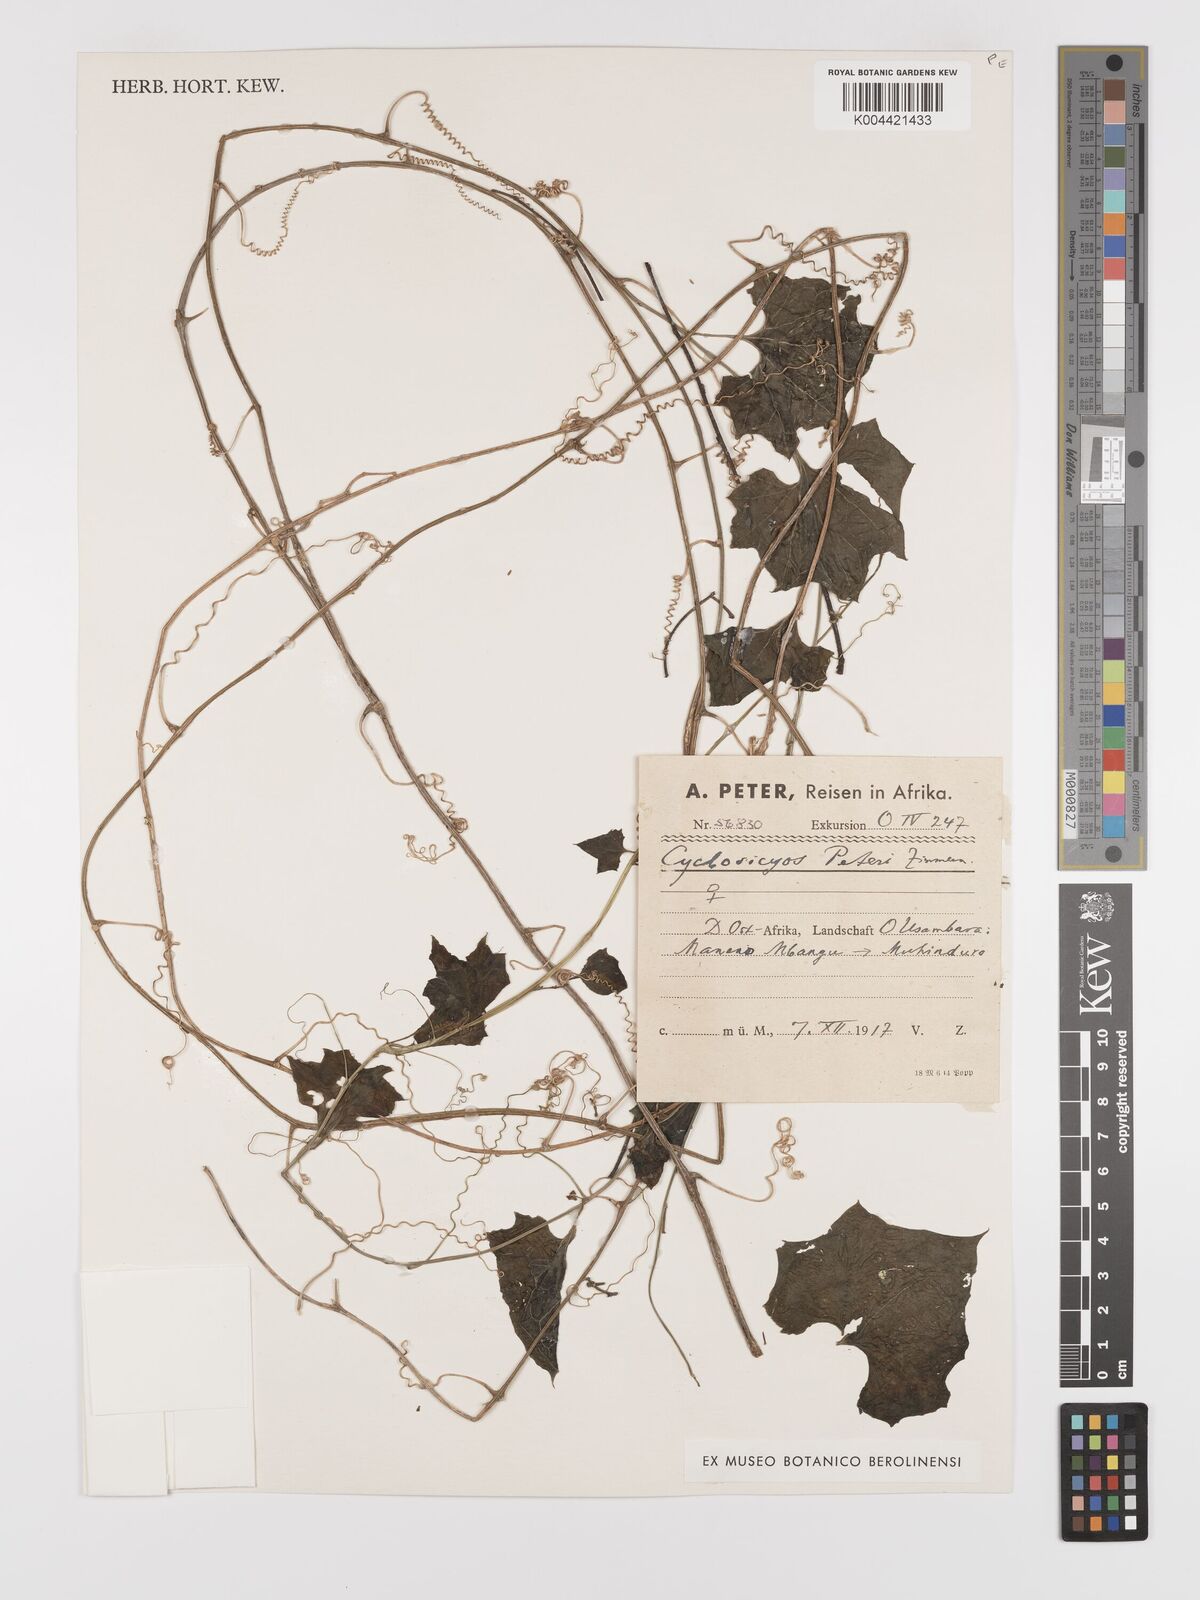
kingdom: Plantae
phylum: Tracheophyta
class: Magnoliopsida
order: Cucurbitales
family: Cucurbitaceae
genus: Cyclantheropsis
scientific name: Cyclantheropsis parviflora
